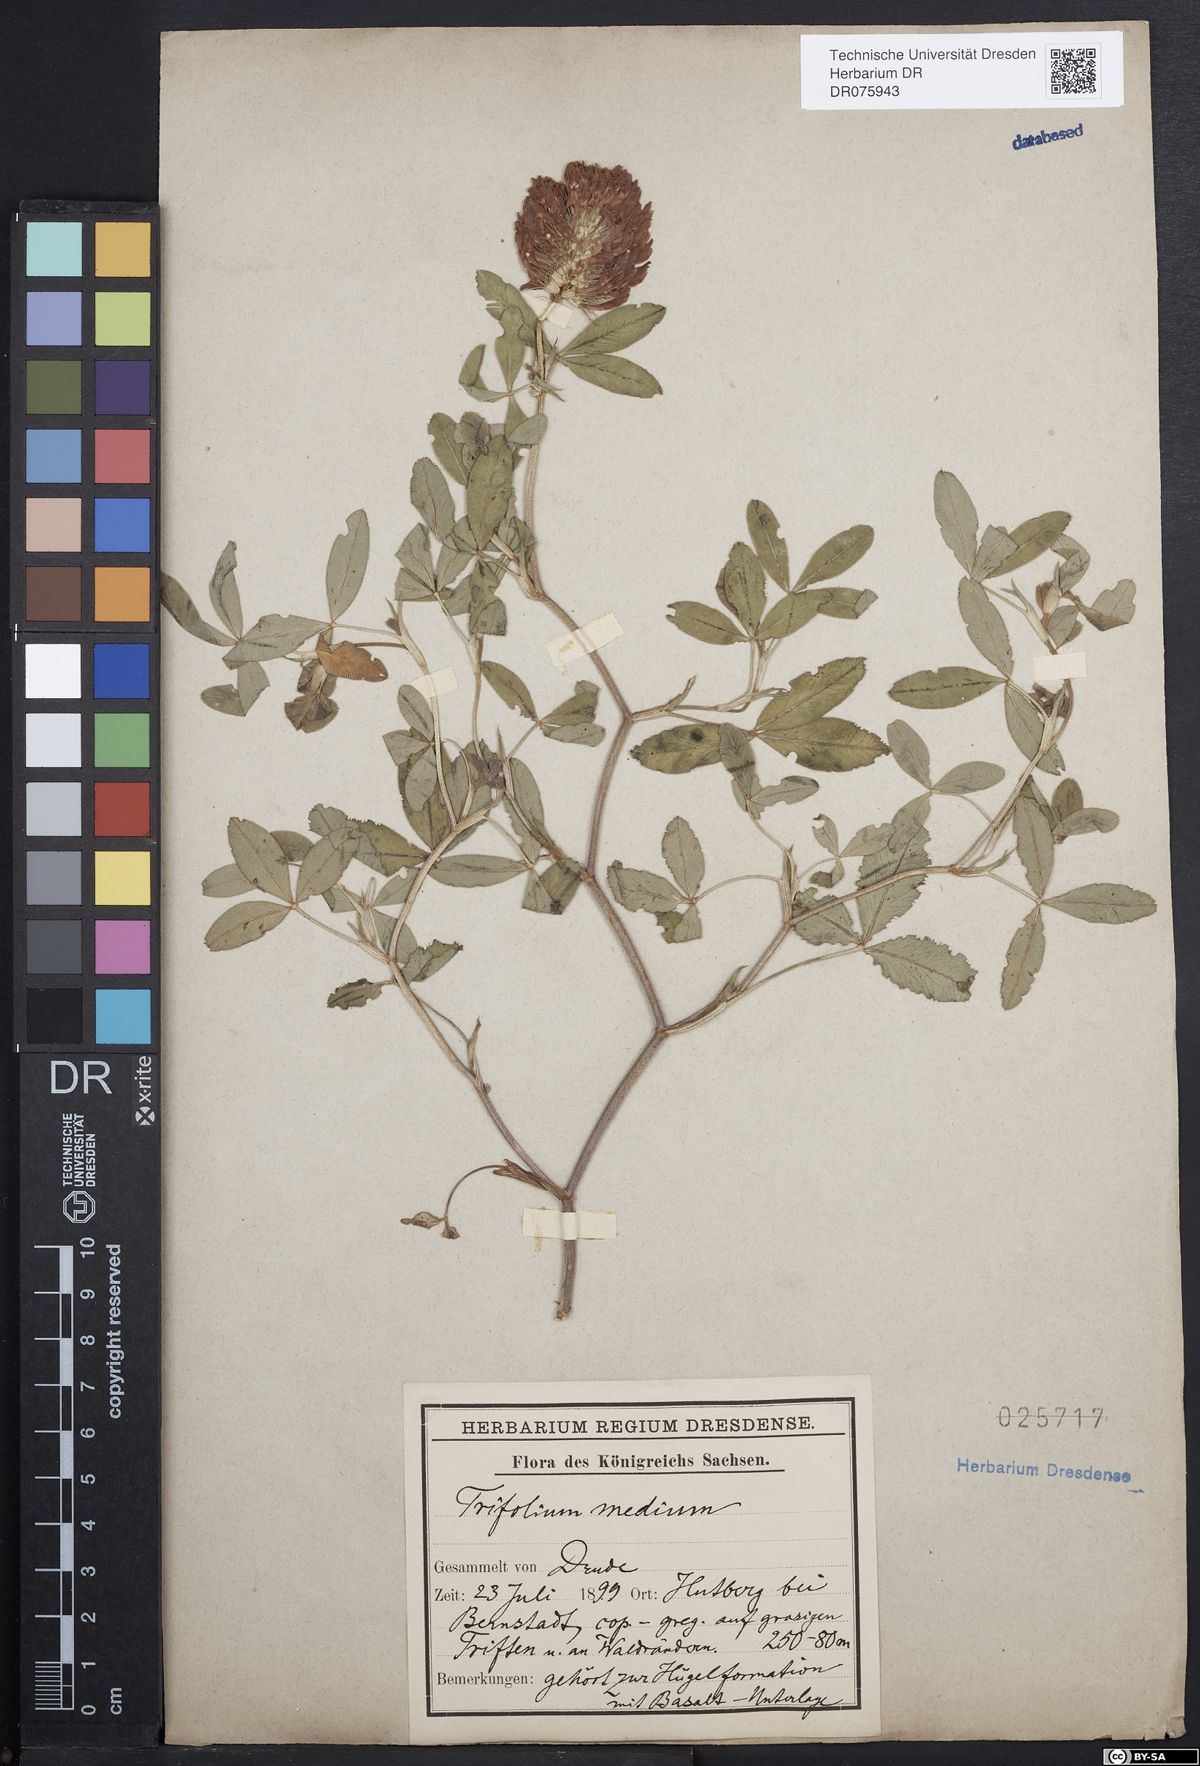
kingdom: Plantae
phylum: Tracheophyta
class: Magnoliopsida
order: Fabales
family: Fabaceae
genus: Trifolium
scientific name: Trifolium medium
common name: Zigzag clover
